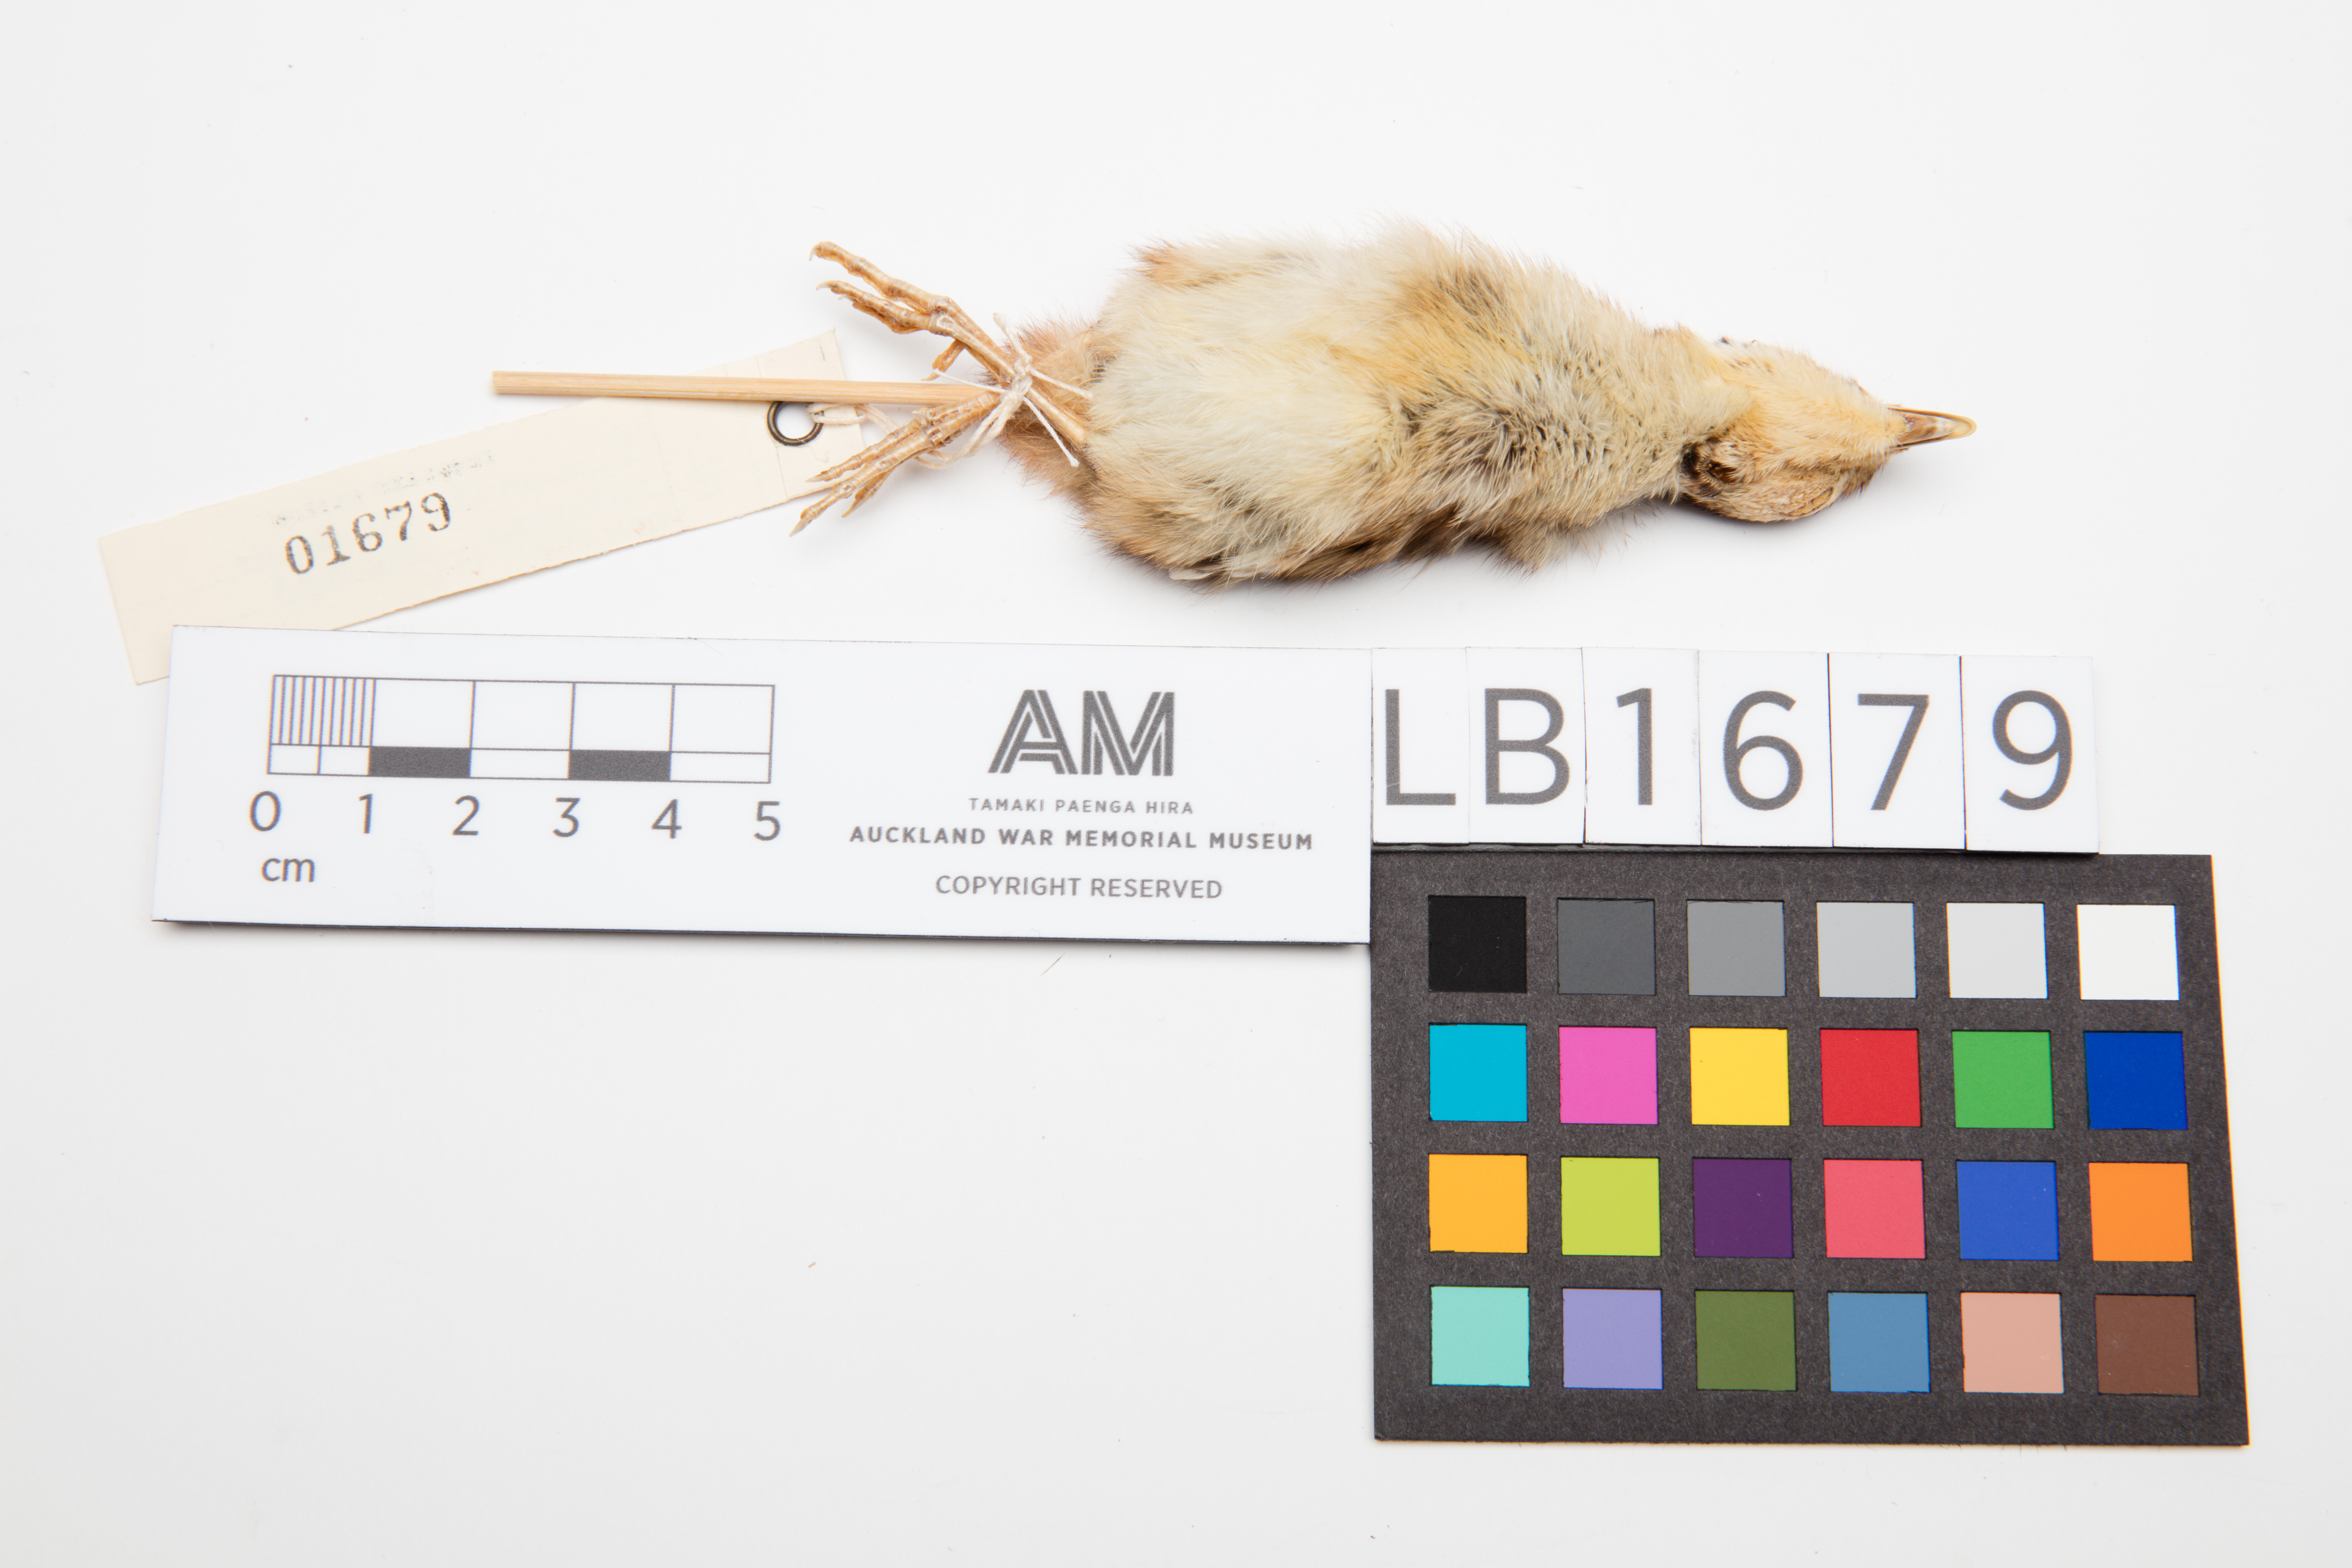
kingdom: Animalia
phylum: Chordata
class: Aves
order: Galliformes
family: Phasianidae
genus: Phasianus
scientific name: Phasianus colchicus
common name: Common pheasant
